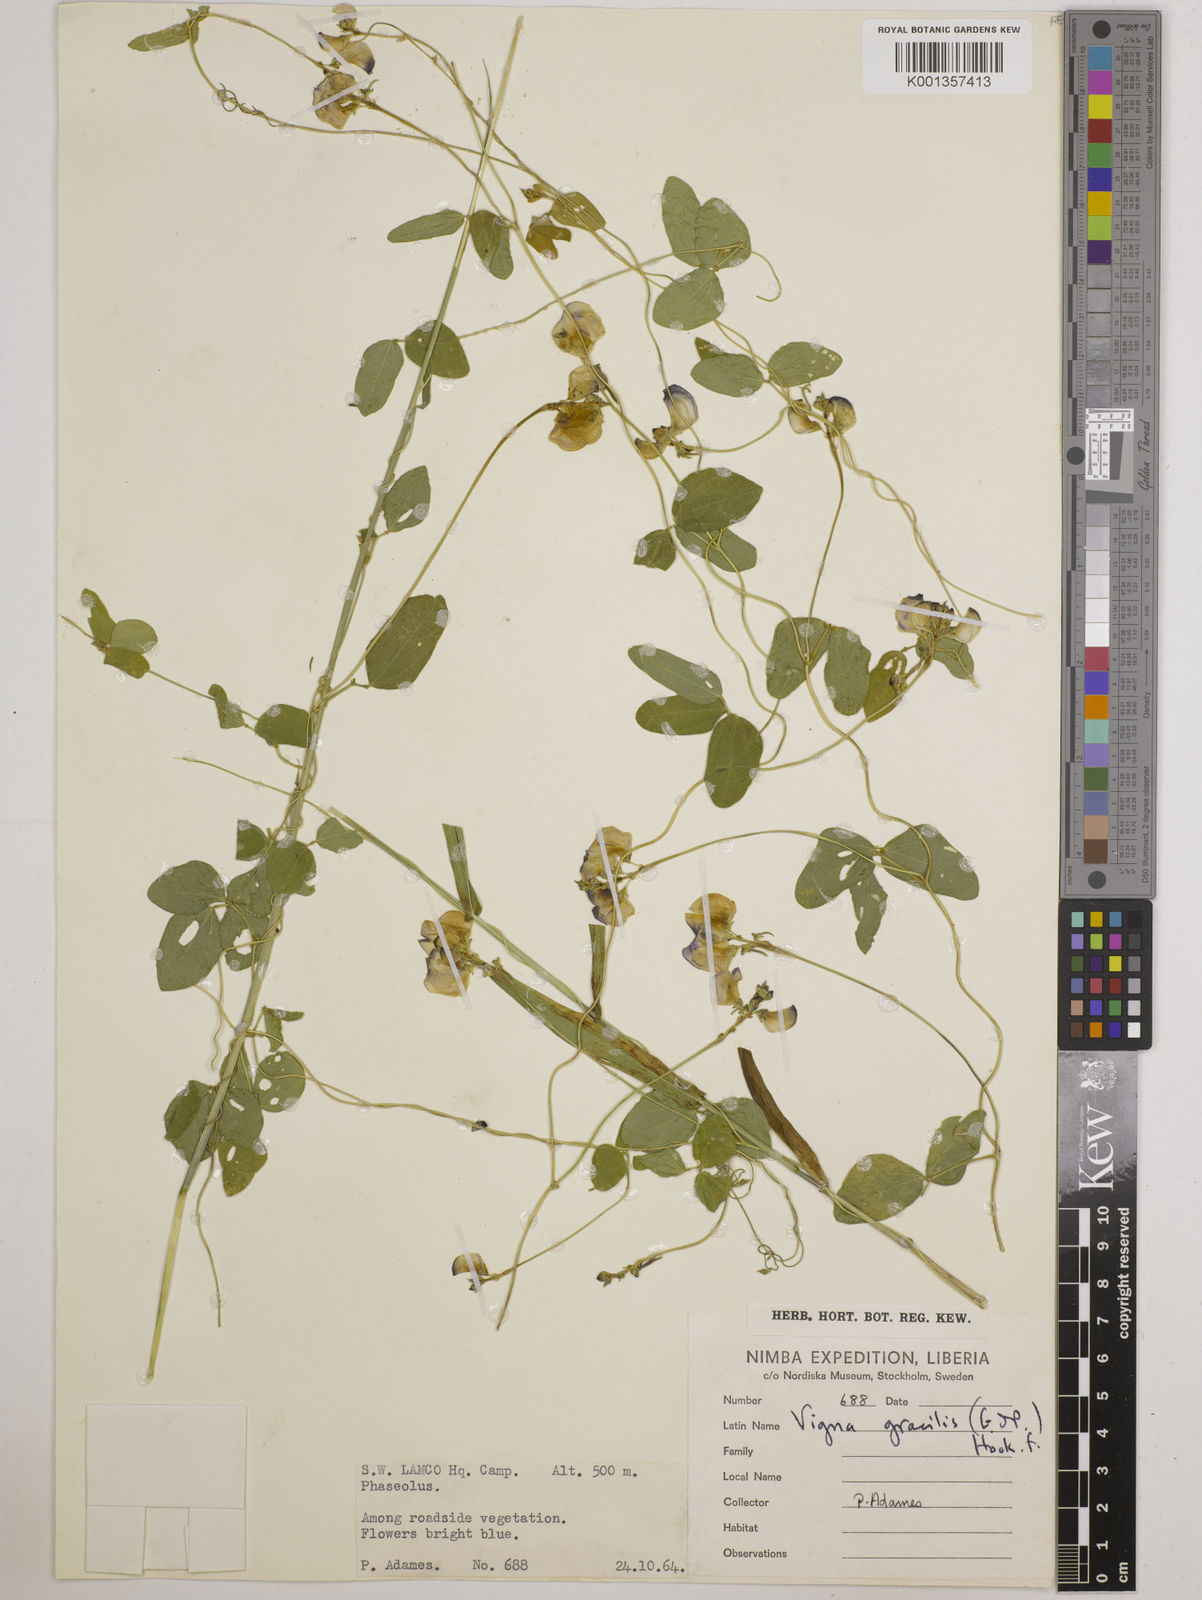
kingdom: Plantae
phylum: Tracheophyta
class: Magnoliopsida
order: Fabales
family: Fabaceae
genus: Vigna
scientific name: Vigna gracilis
